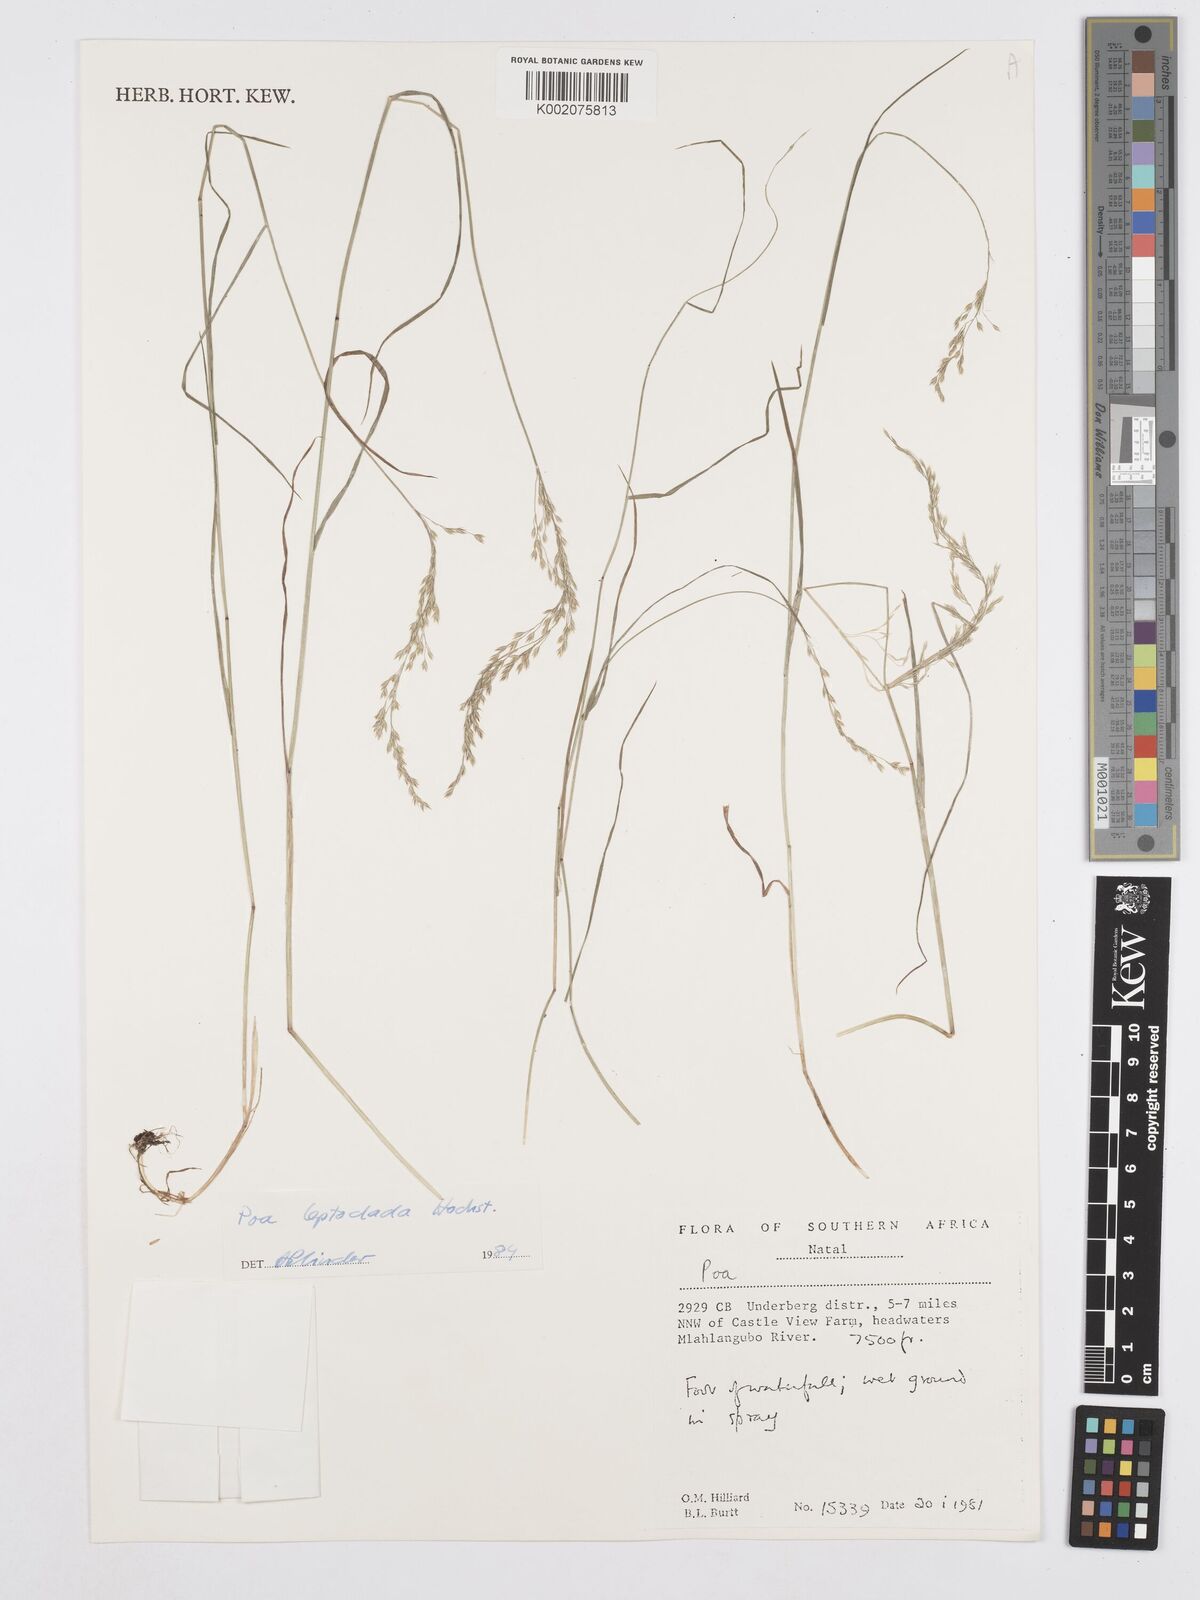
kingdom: Plantae
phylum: Tracheophyta
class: Liliopsida
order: Poales
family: Poaceae
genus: Poa
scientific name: Poa leptoclada
